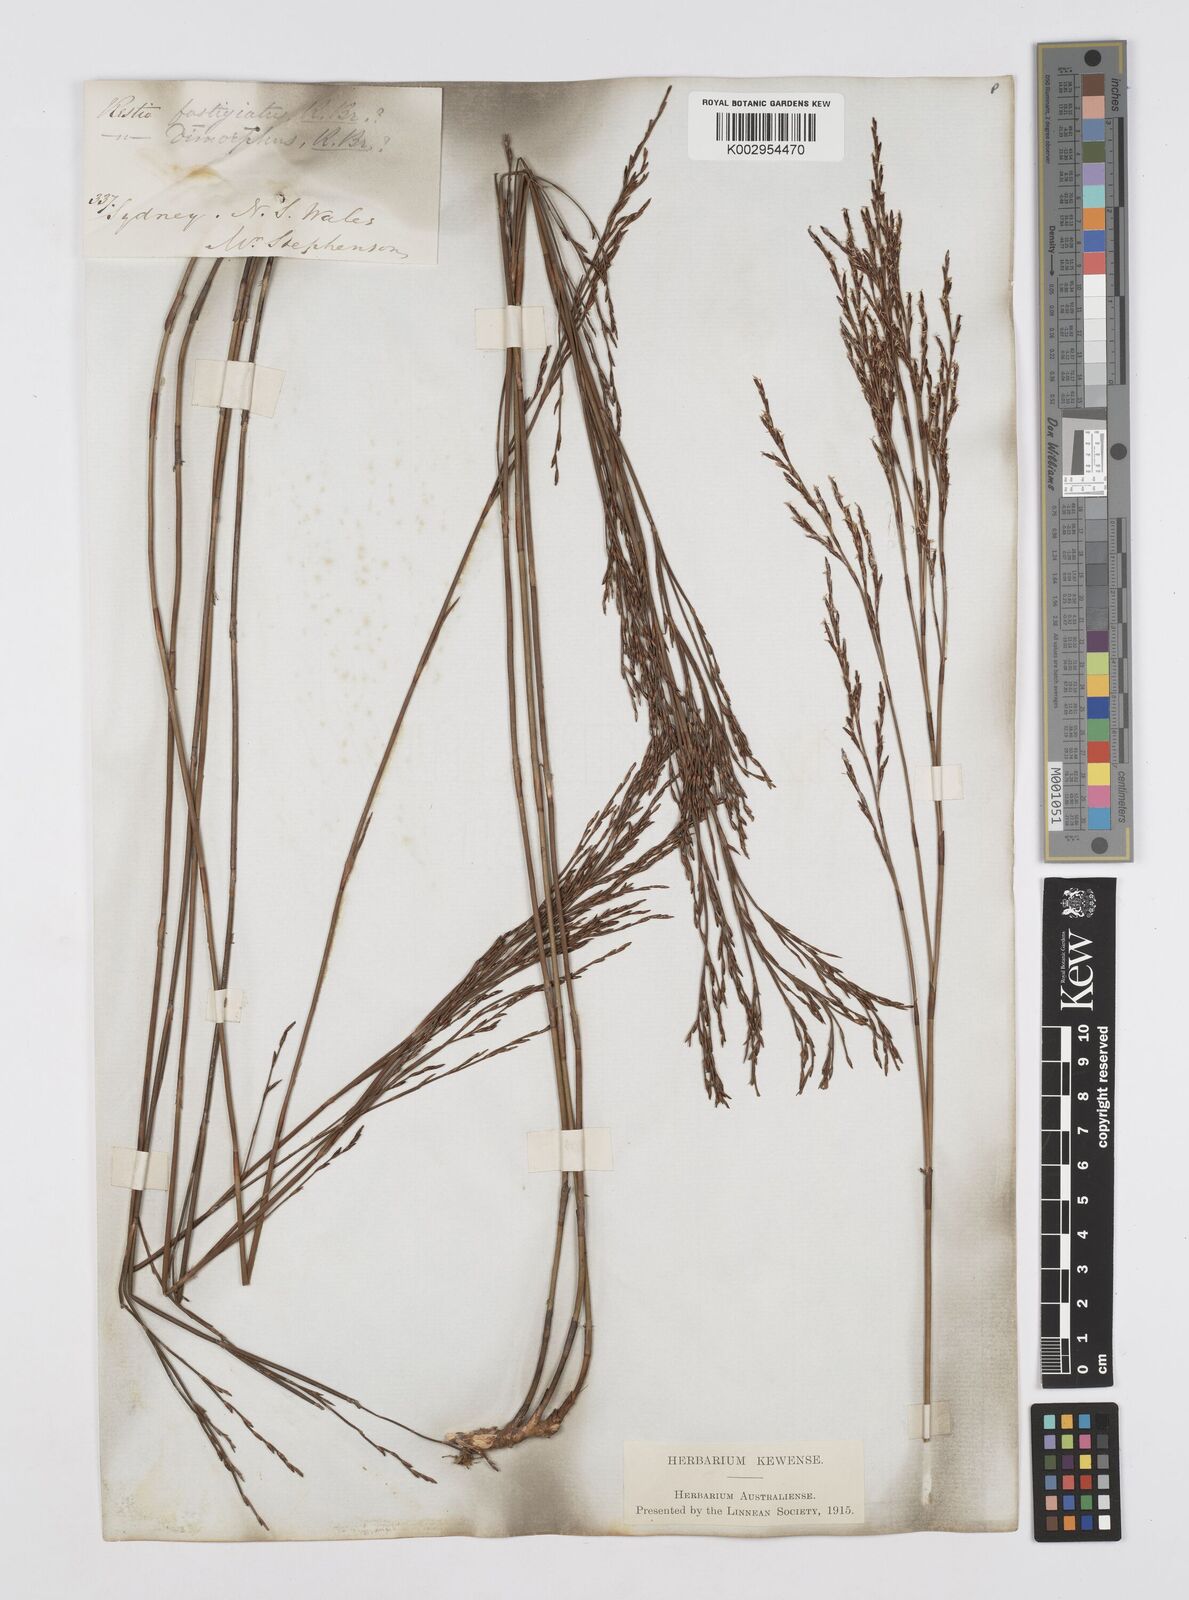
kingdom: Plantae
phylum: Tracheophyta
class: Liliopsida
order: Poales
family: Restionaceae
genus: Chordifex
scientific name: Chordifex fastigiatus
